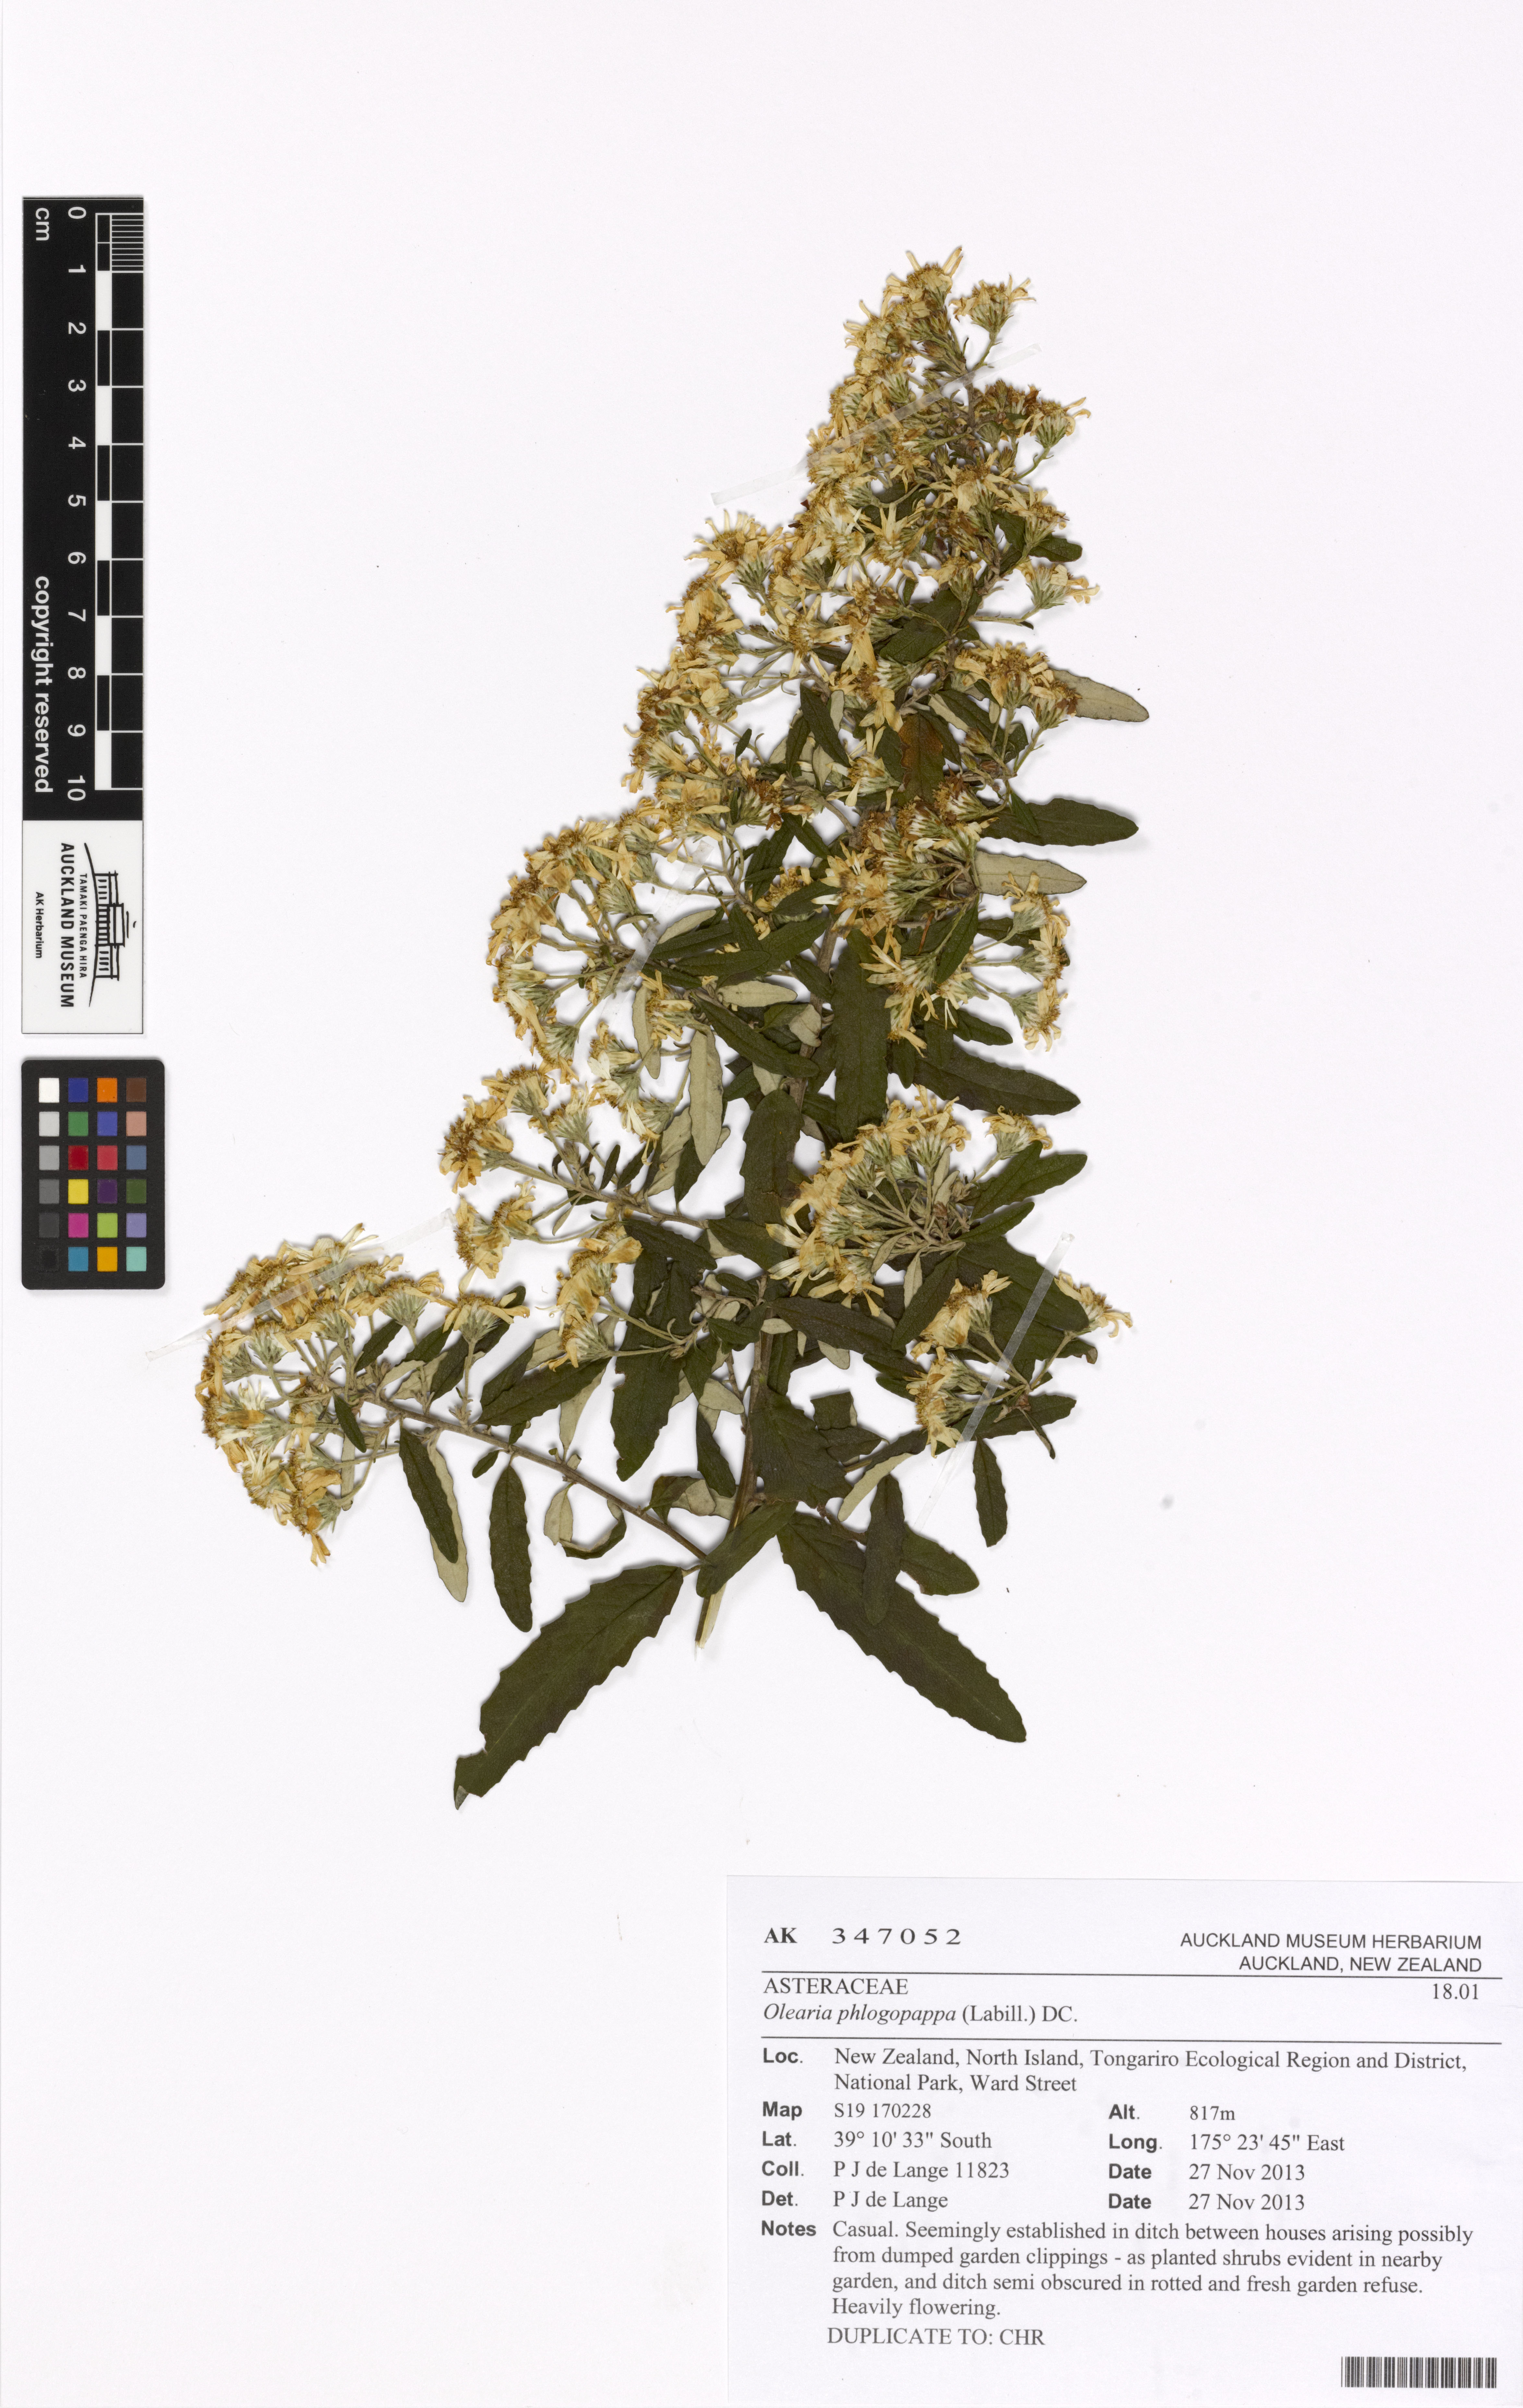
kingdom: Plantae
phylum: Tracheophyta
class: Magnoliopsida
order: Asterales
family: Asteraceae
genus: Olearia
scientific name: Olearia phlogopappa
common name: Alpine daisybush
